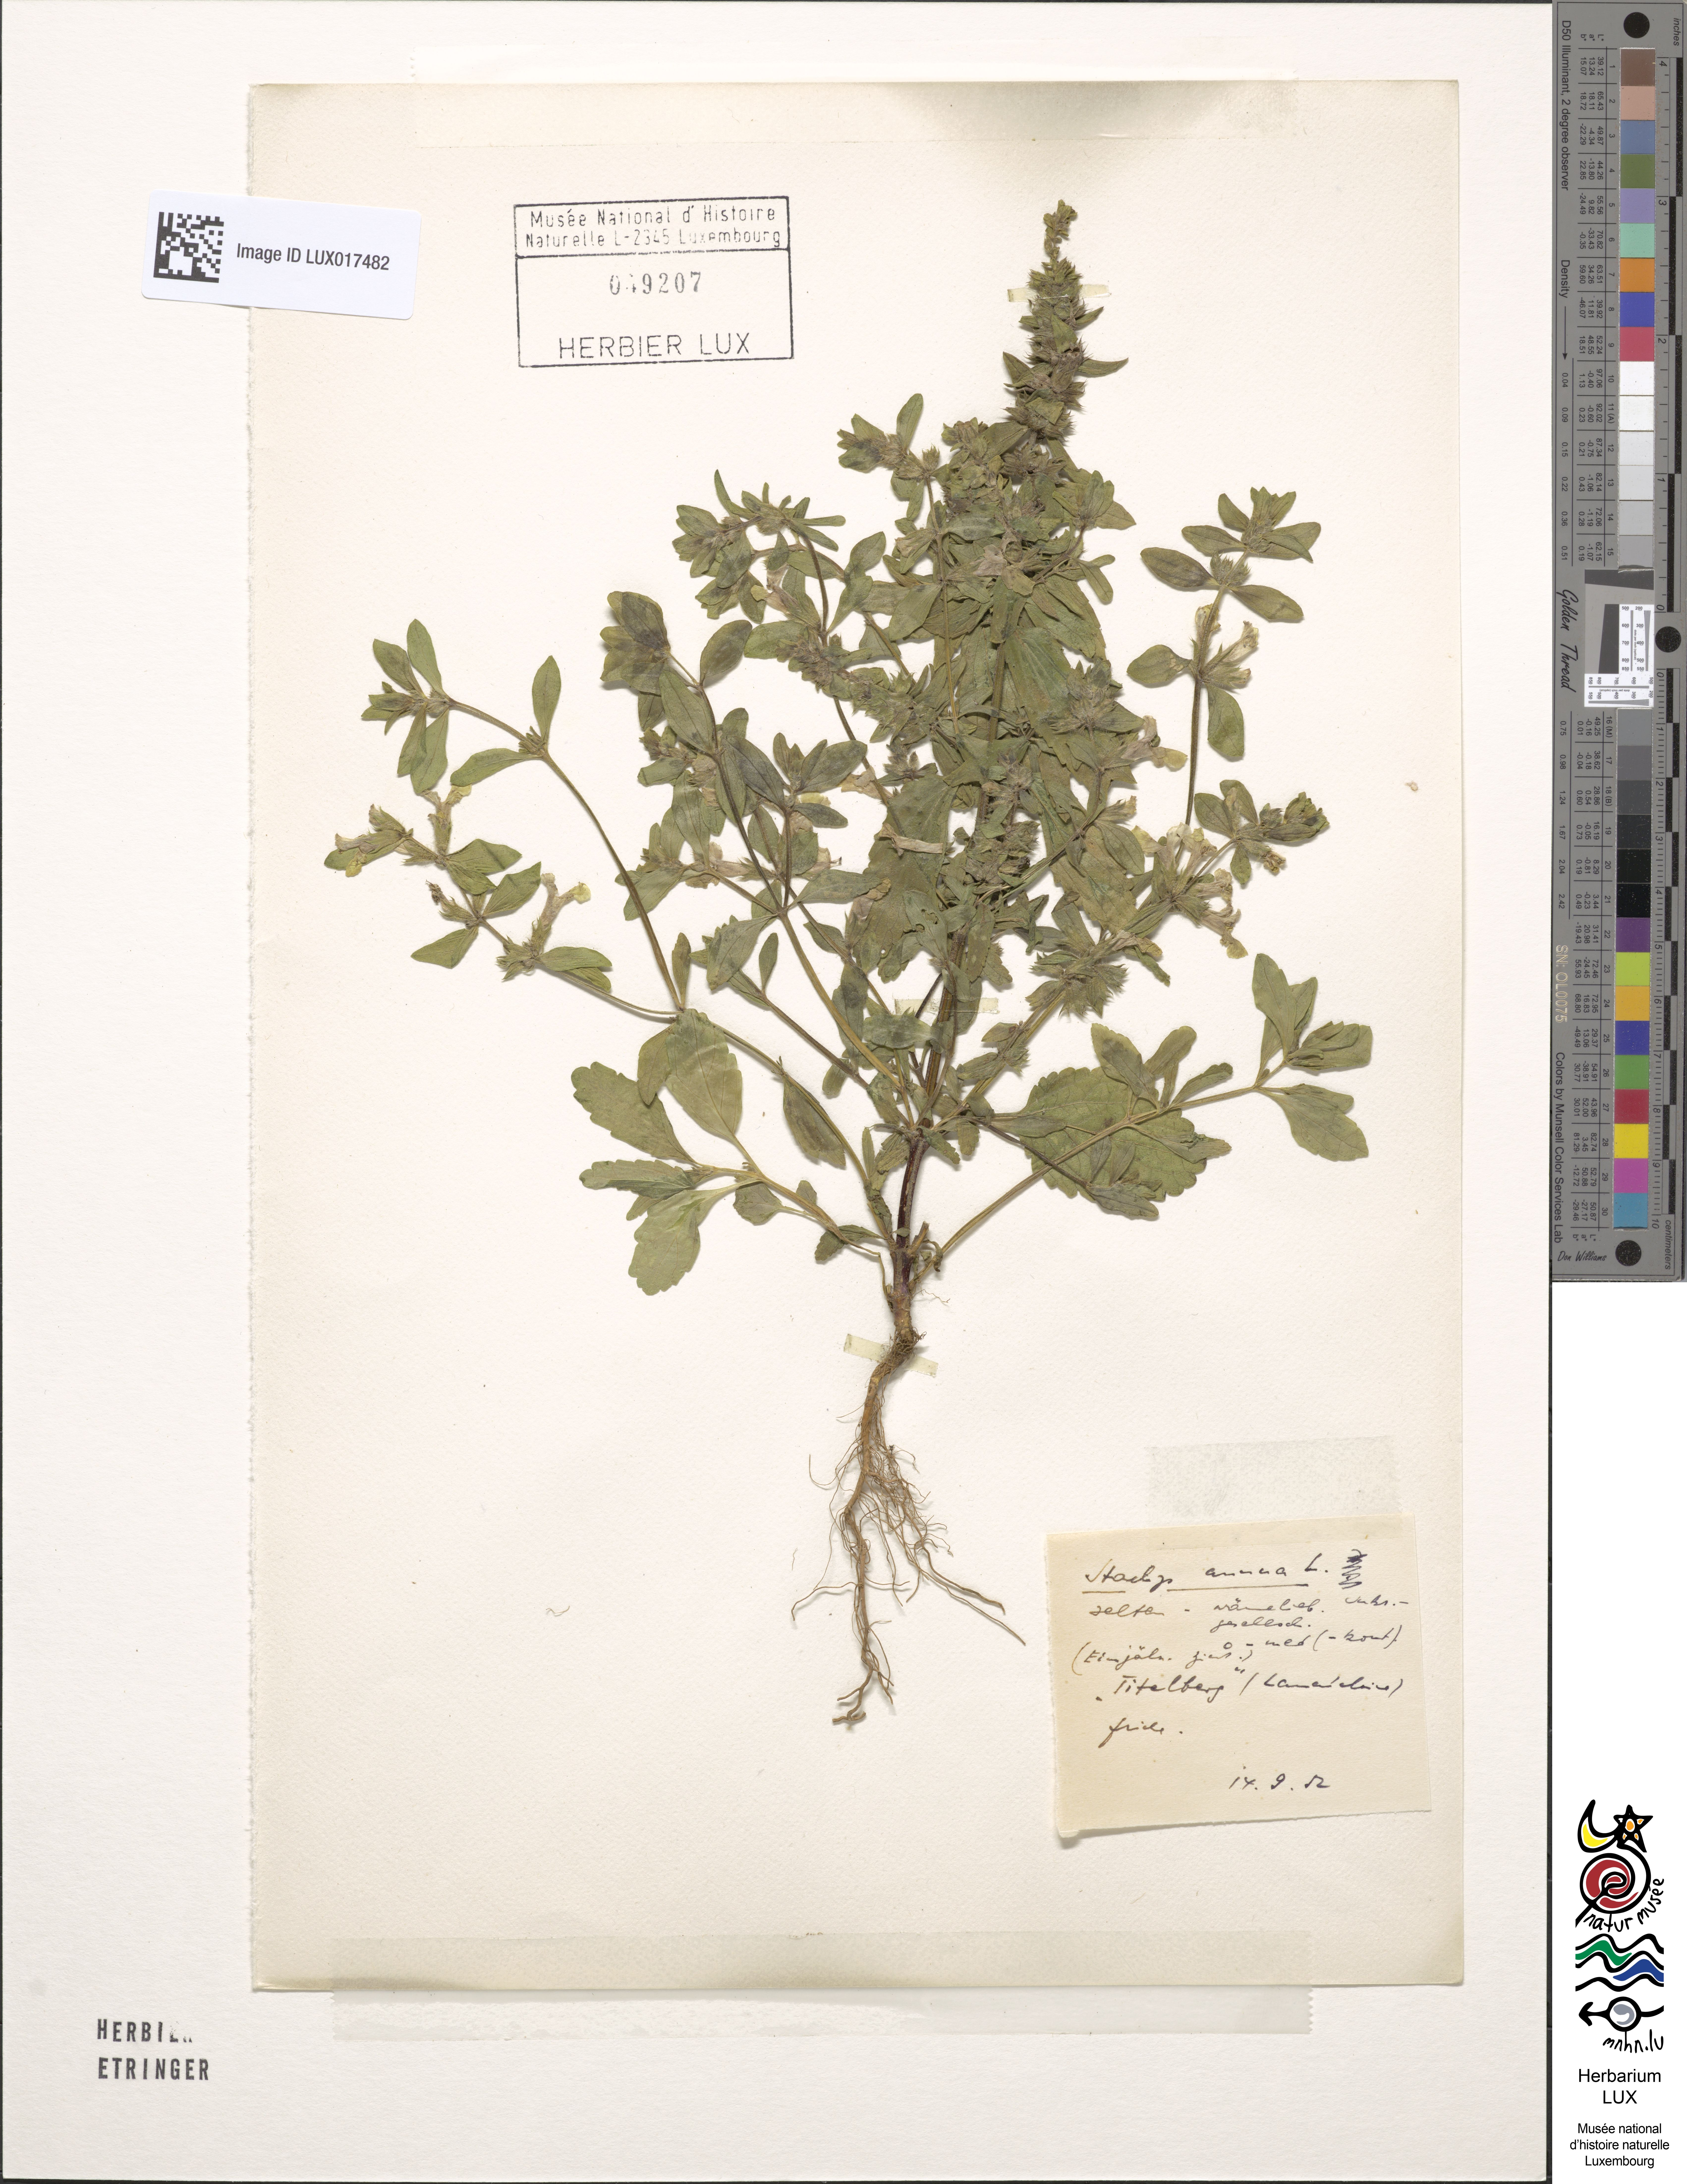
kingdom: Plantae
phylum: Tracheophyta
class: Magnoliopsida
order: Lamiales
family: Lamiaceae
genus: Stachys
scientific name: Stachys annua
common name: Annual yellow-woundwort
